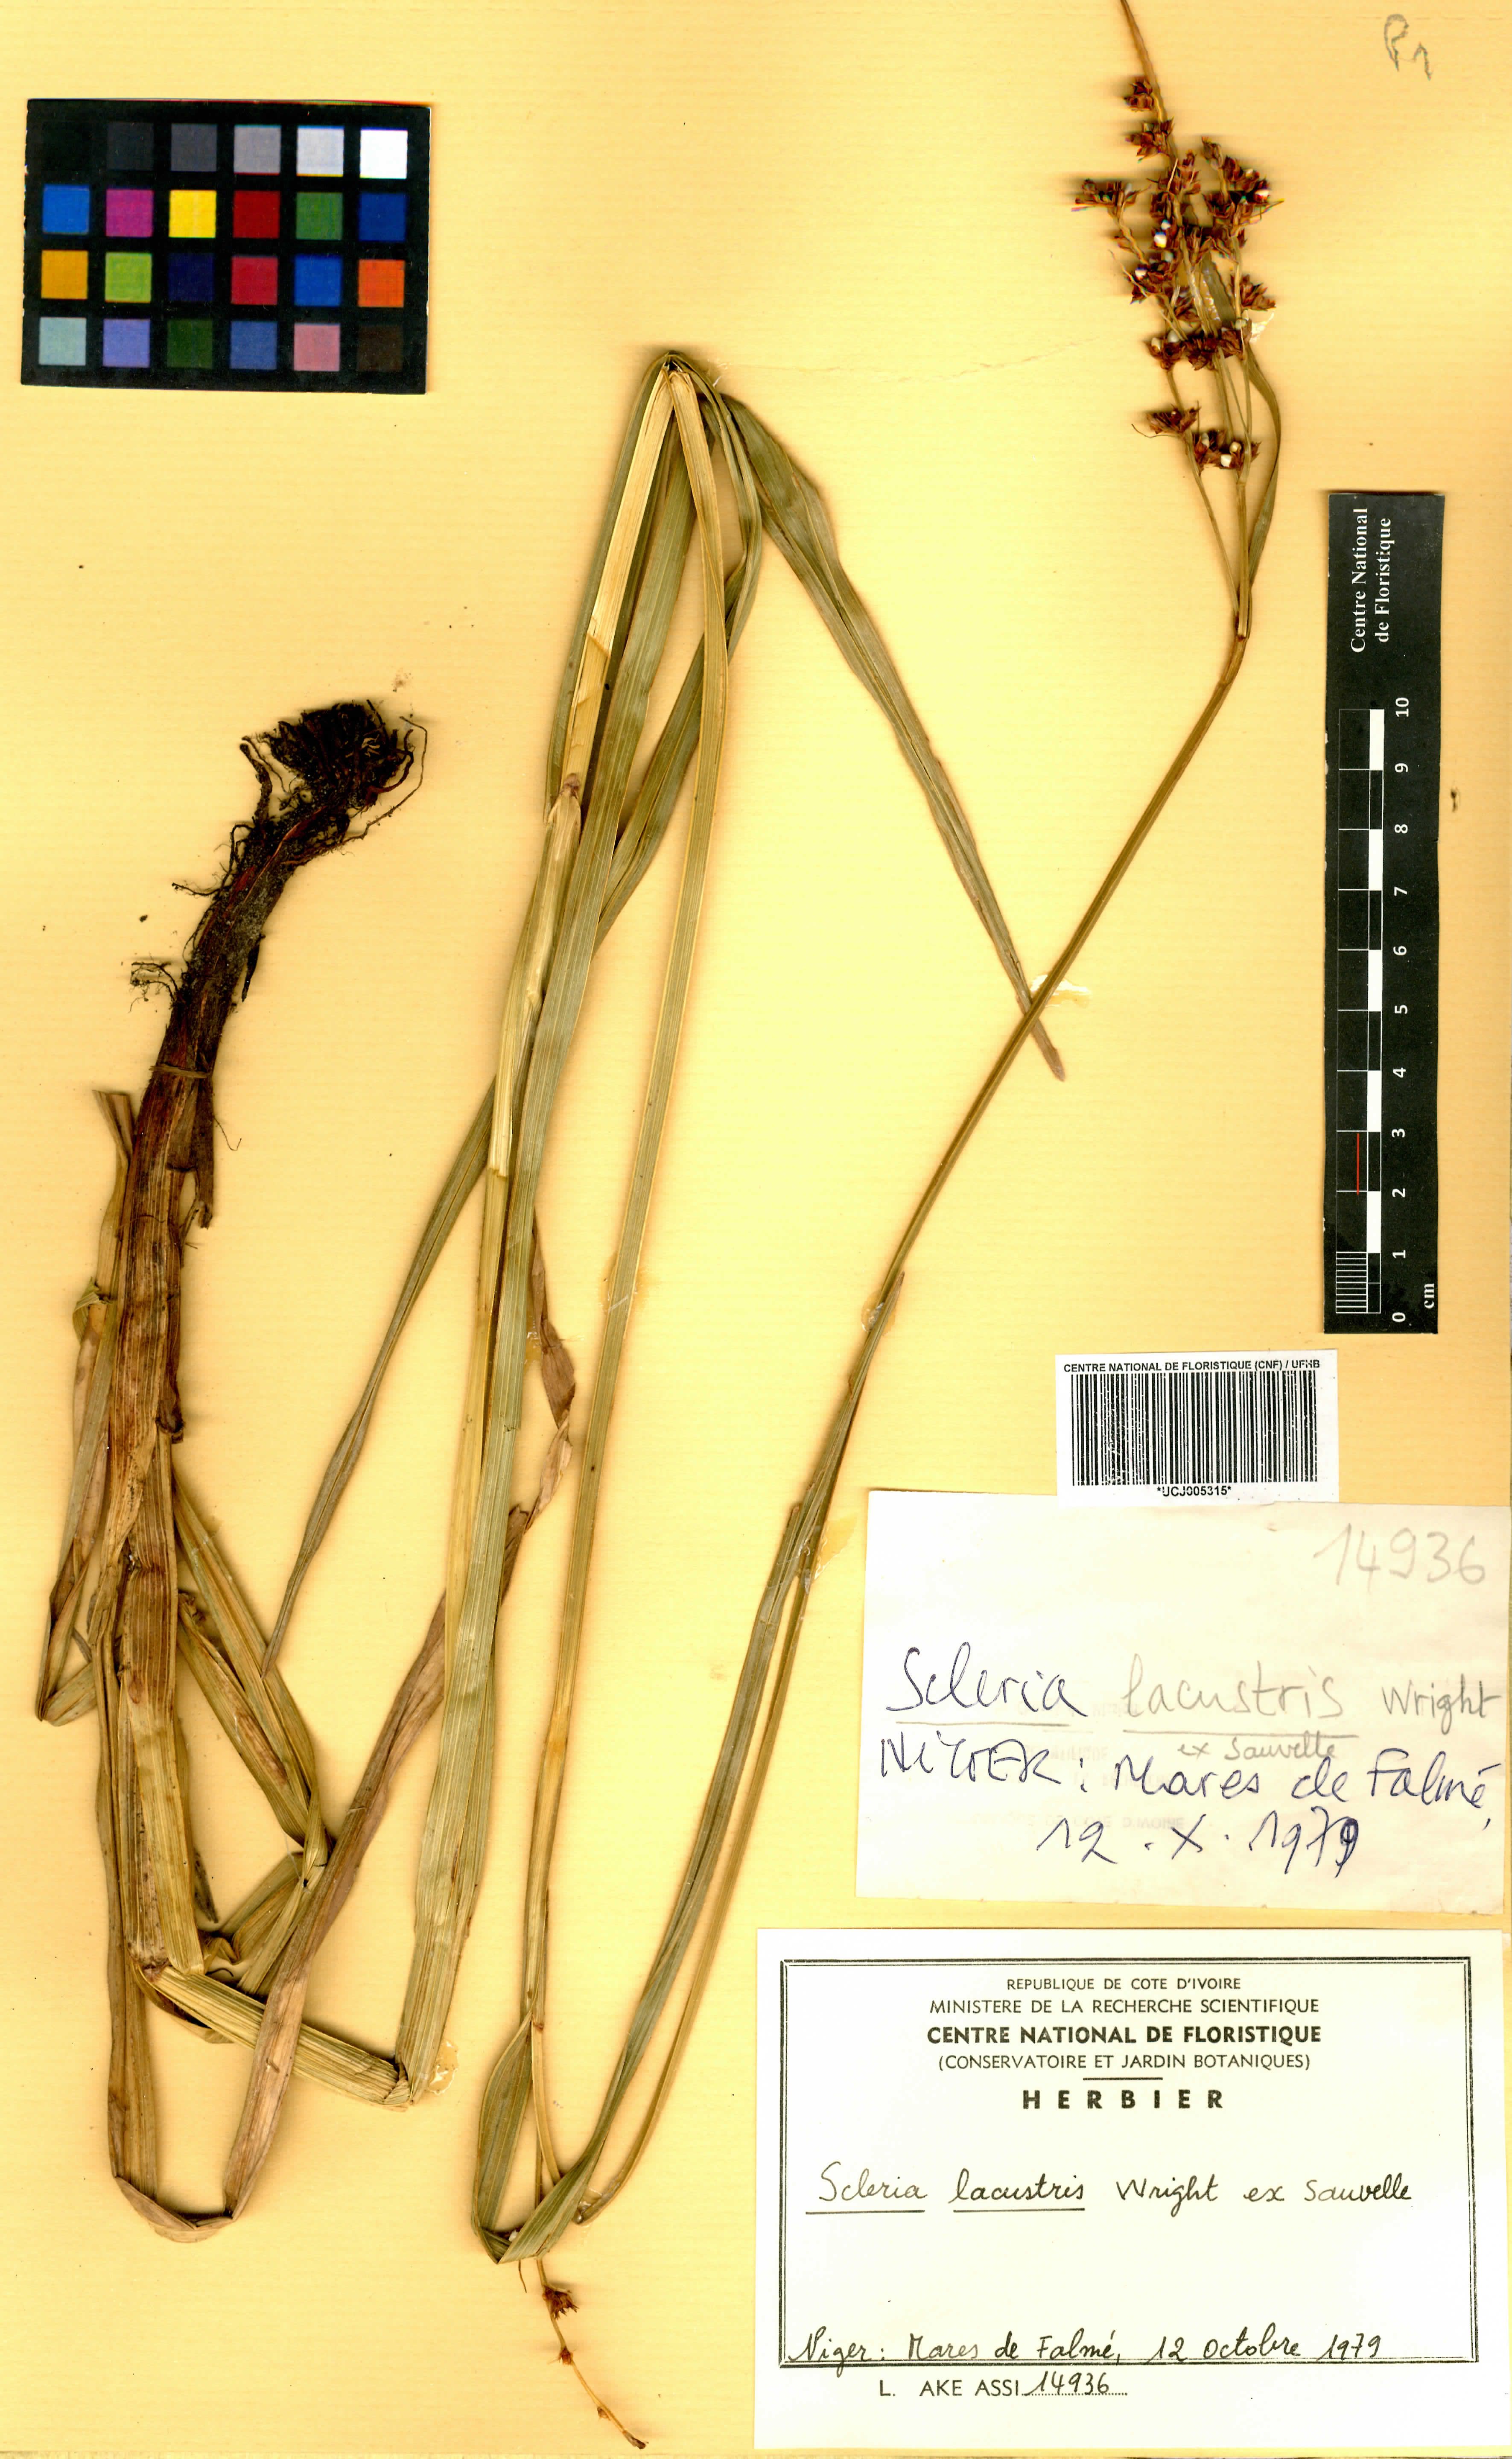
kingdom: Plantae
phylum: Tracheophyta
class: Liliopsida
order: Poales
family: Cyperaceae
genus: Scleria
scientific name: Scleria lacustris
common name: Lakeshore nutrush
